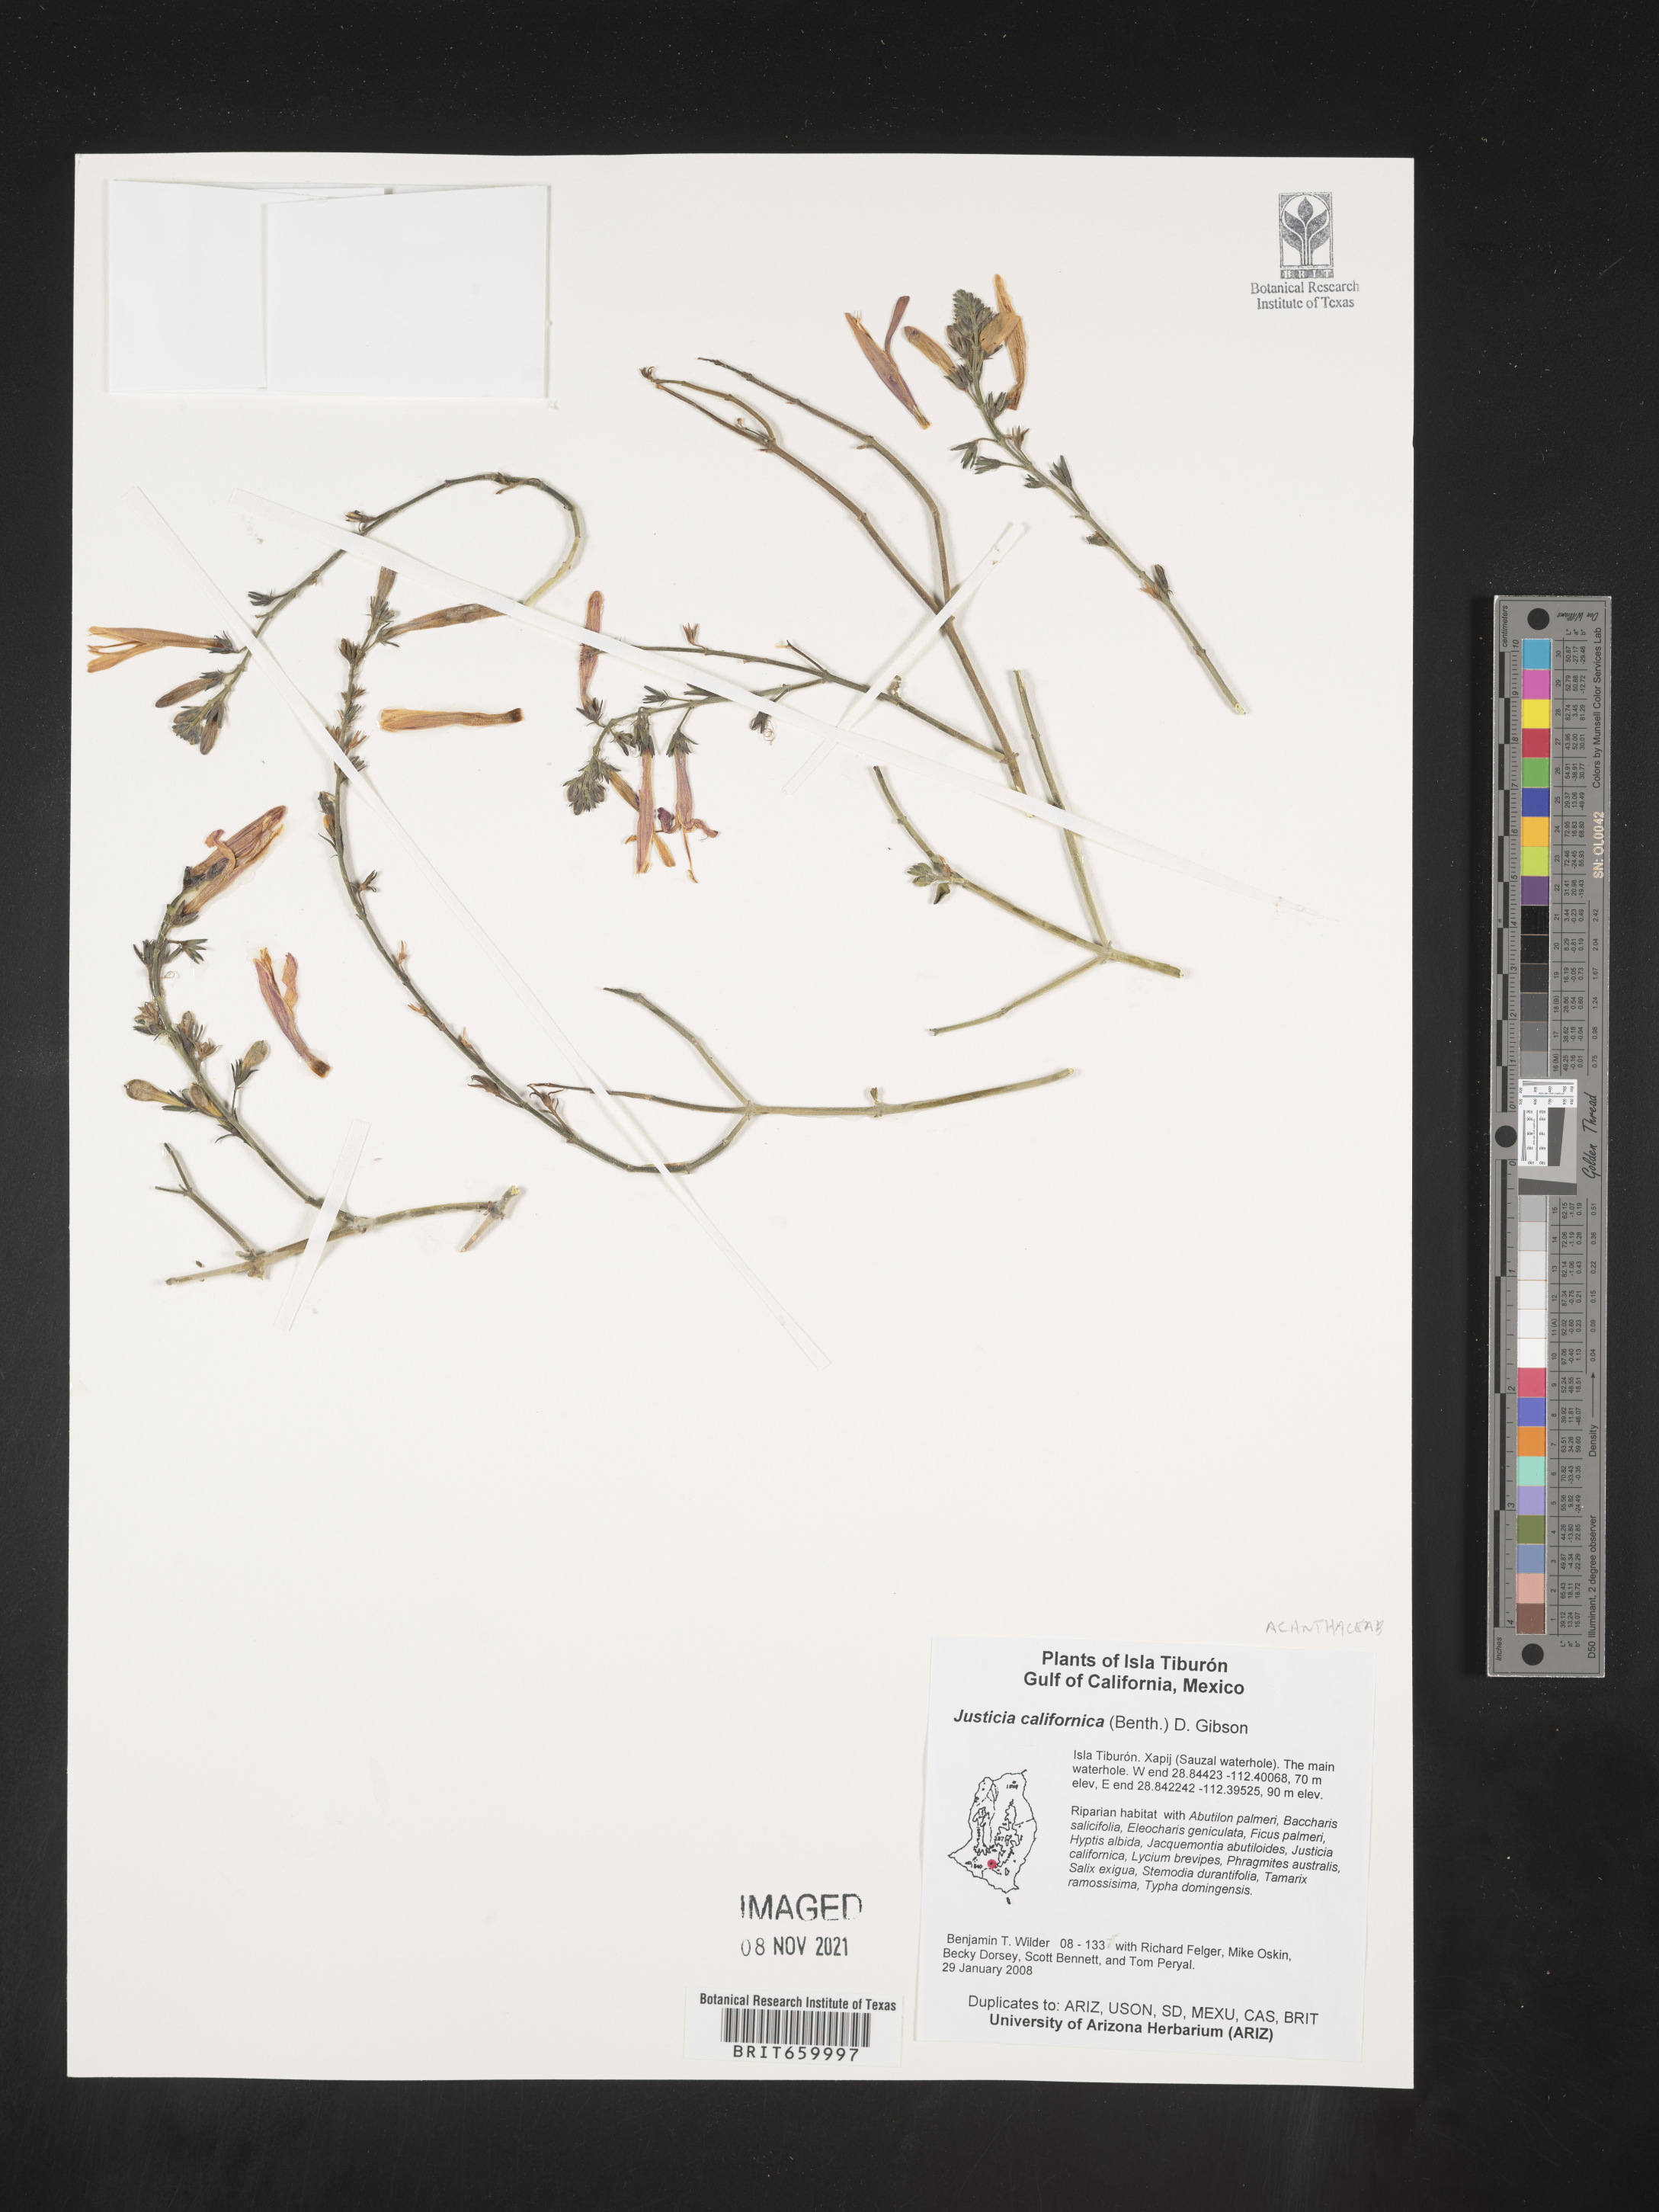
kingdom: Plantae
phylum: Tracheophyta
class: Magnoliopsida
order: Lamiales
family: Acanthaceae
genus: Justicia
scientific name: Justicia californica
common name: Chuparosa-honeysuckle
